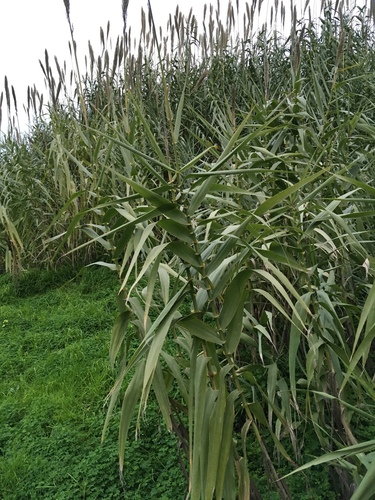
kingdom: Plantae
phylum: Tracheophyta
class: Liliopsida
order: Poales
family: Poaceae
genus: Arundo
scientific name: Arundo donax
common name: Giant reed
